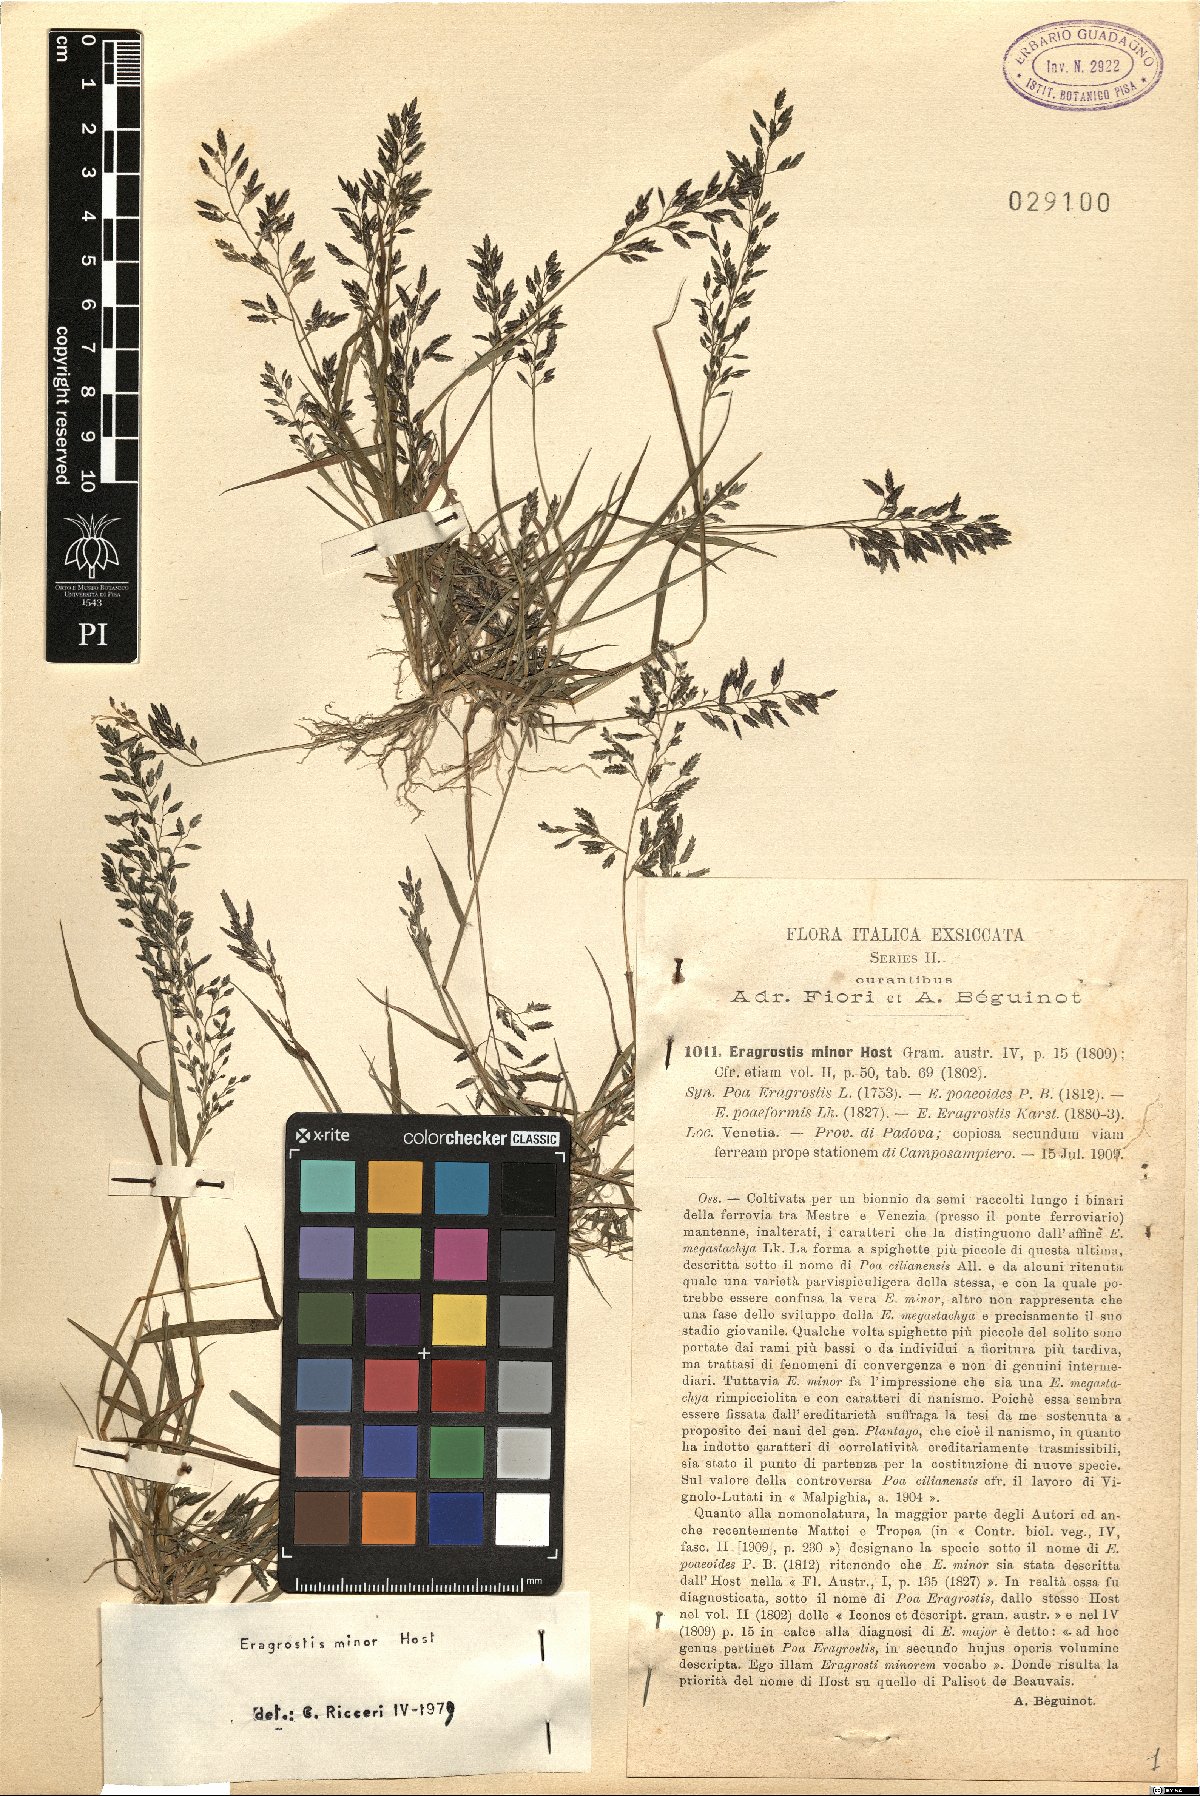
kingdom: Plantae
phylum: Tracheophyta
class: Liliopsida
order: Poales
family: Poaceae
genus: Eragrostis
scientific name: Eragrostis minor
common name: Small love-grass
